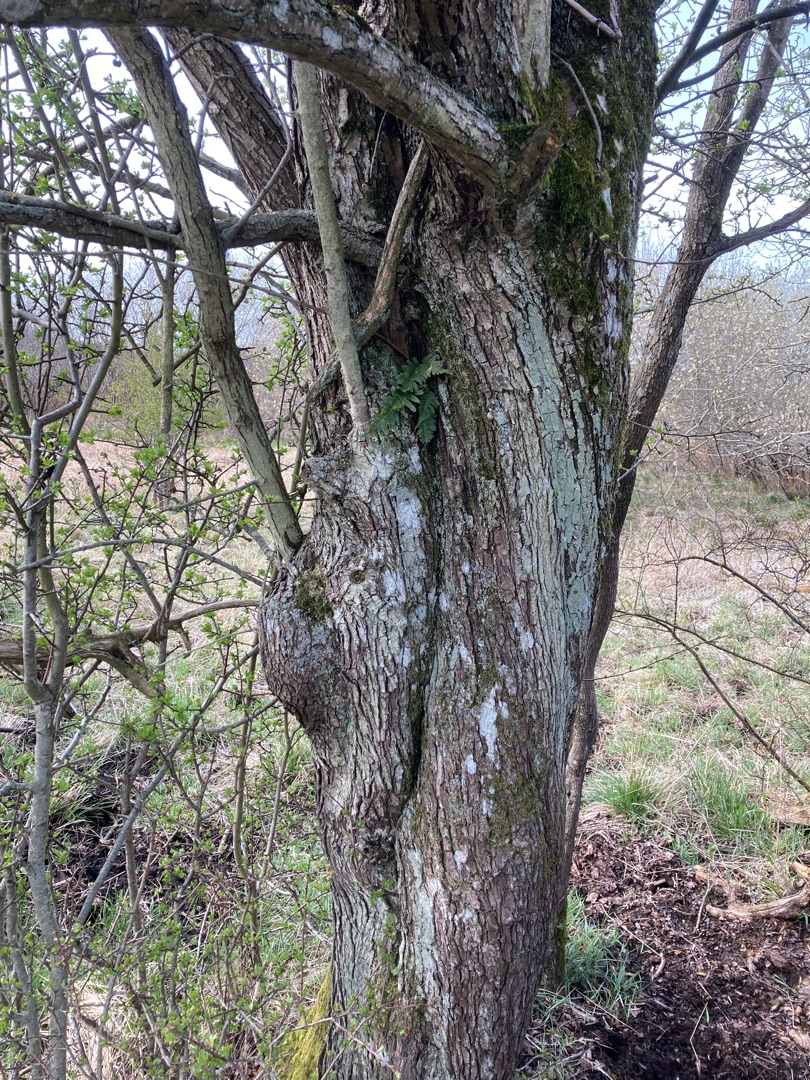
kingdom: Plantae
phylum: Tracheophyta
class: Polypodiopsida
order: Polypodiales
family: Polypodiaceae
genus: Polypodium
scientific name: Polypodium vulgare
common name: Almindelig engelsød
